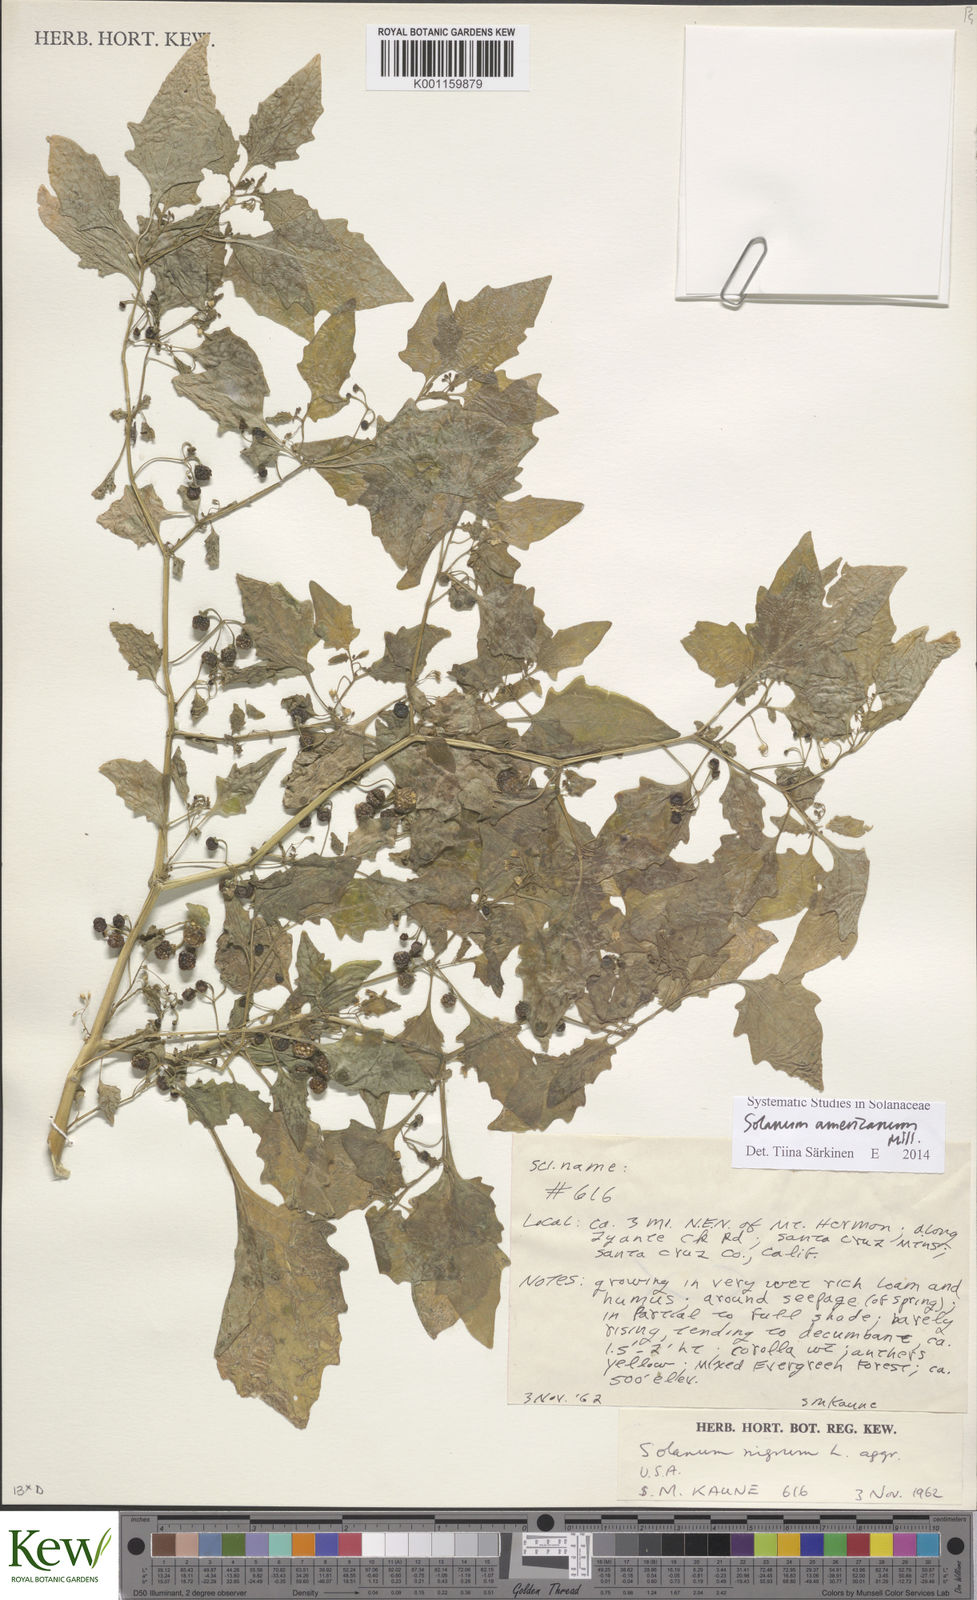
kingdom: Plantae
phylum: Tracheophyta
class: Magnoliopsida
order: Solanales
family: Solanaceae
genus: Solanum
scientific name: Solanum americanum
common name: American black nightshade
